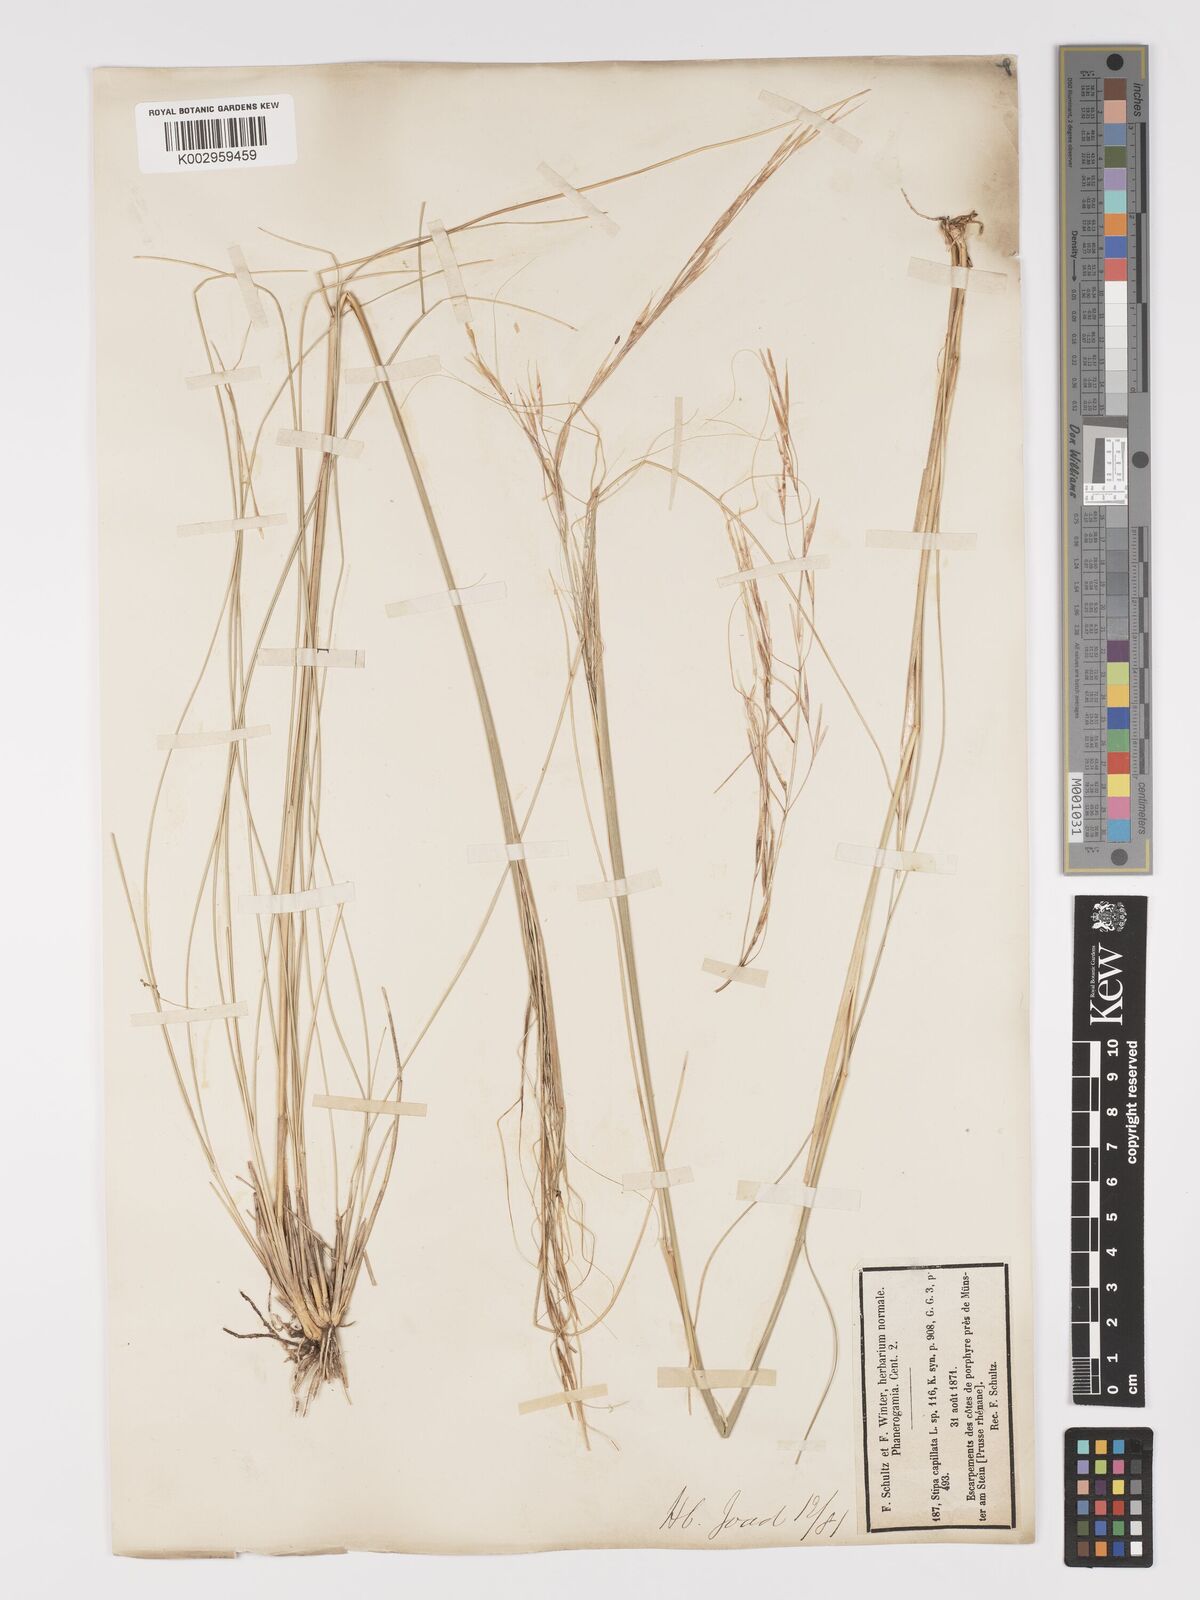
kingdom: Plantae
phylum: Tracheophyta
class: Liliopsida
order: Poales
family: Poaceae
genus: Stipa
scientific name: Stipa capillata
